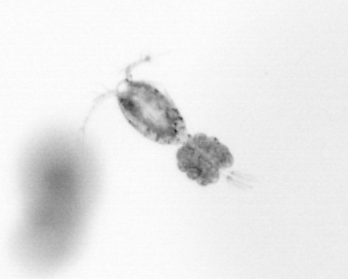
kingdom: Animalia
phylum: Arthropoda
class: Copepoda
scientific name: Copepoda
